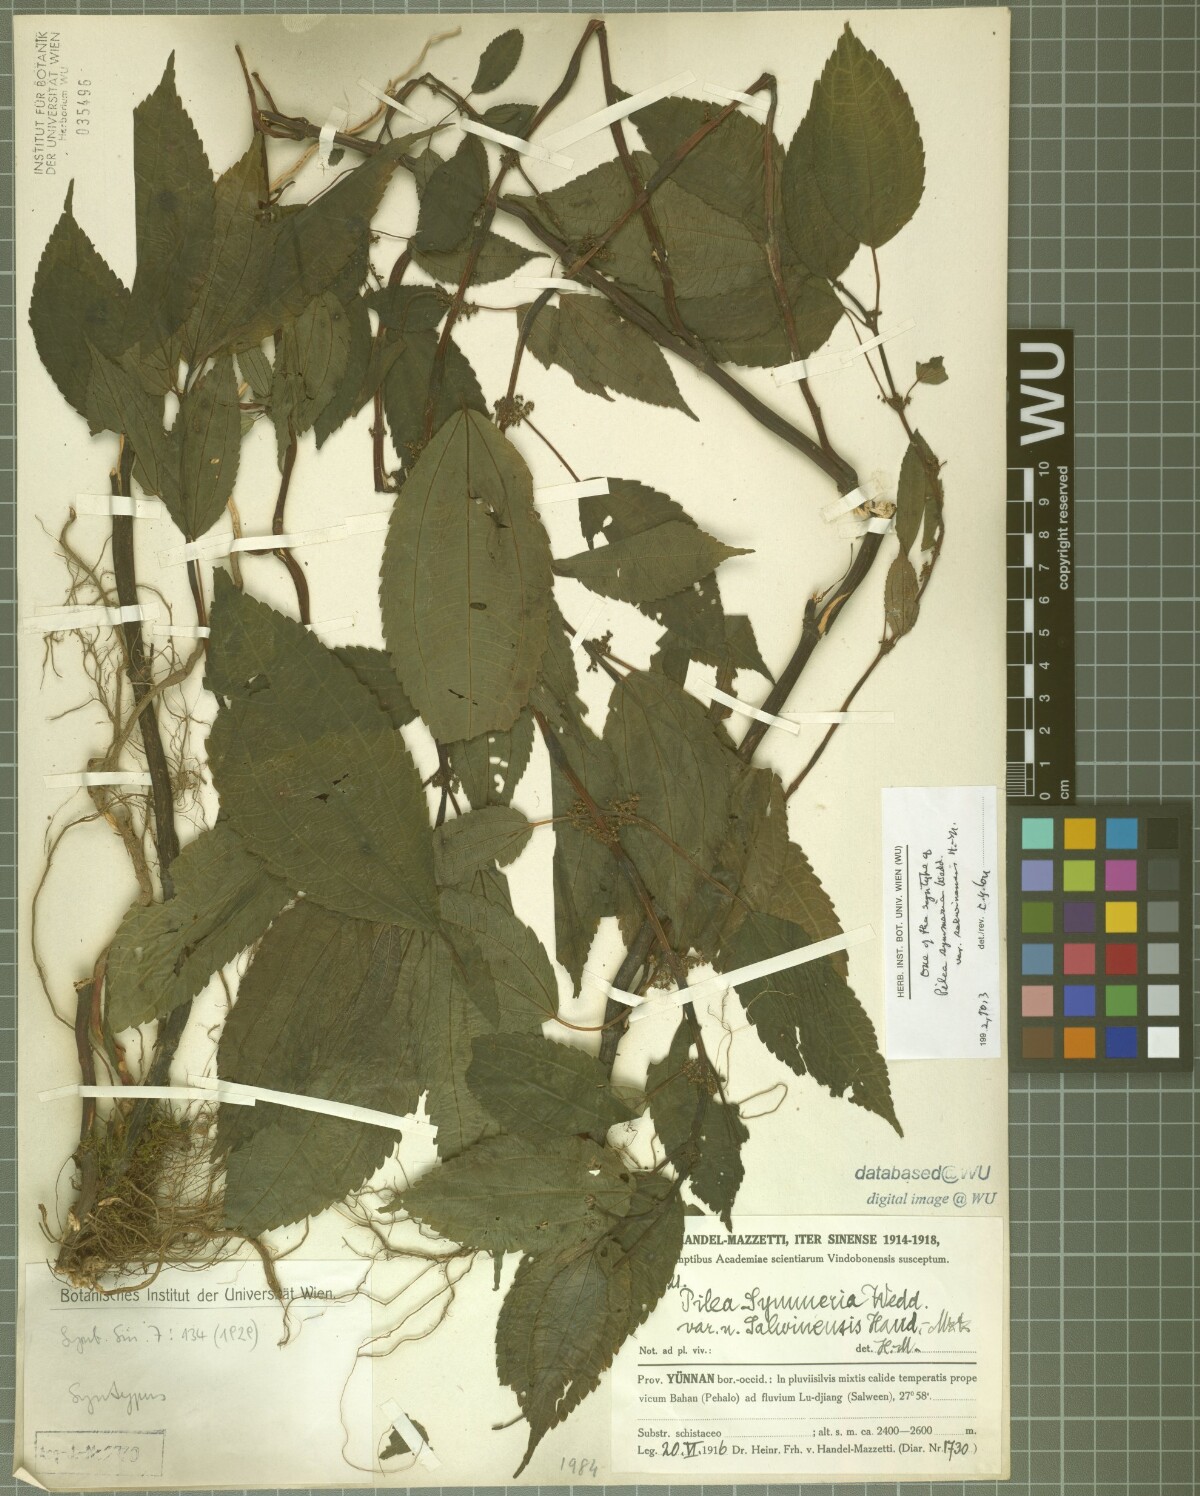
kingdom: Plantae
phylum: Tracheophyta
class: Magnoliopsida
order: Rosales
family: Urticaceae
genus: Pilea
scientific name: Pilea salwinensis
